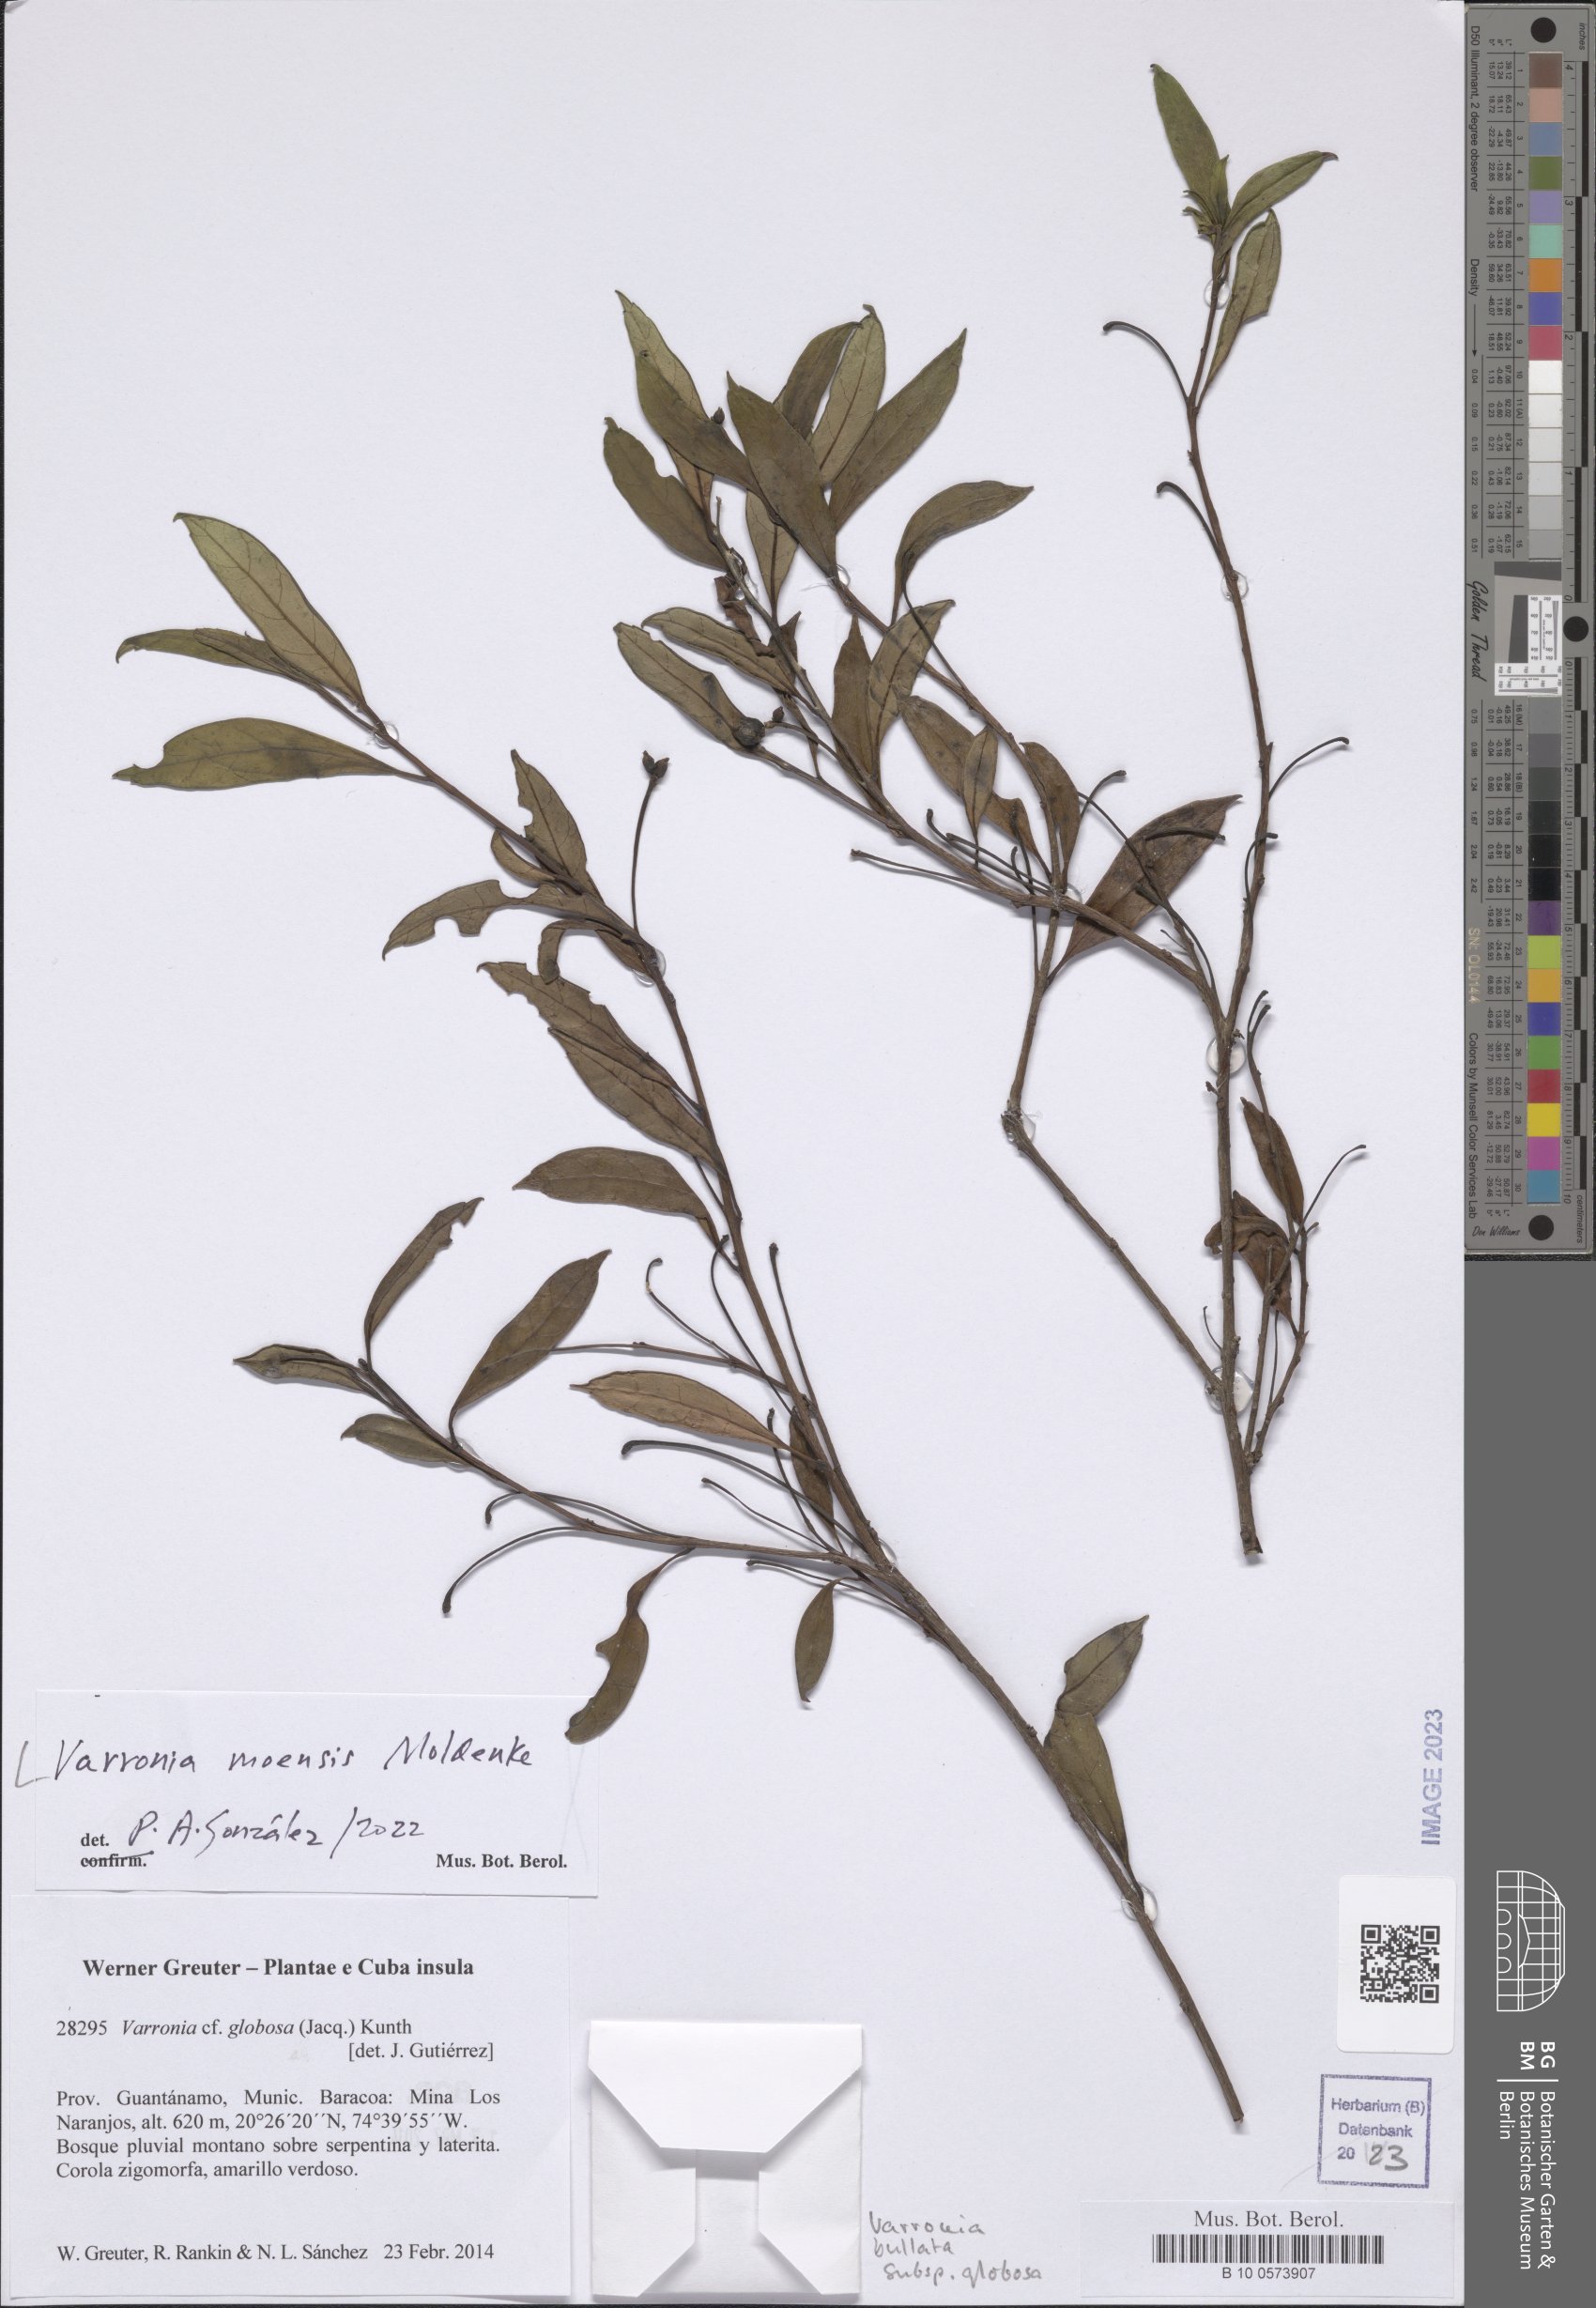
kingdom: Plantae
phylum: Tracheophyta
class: Magnoliopsida
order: Boraginales
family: Cordiaceae
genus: Varronia
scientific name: Varronia moensis
